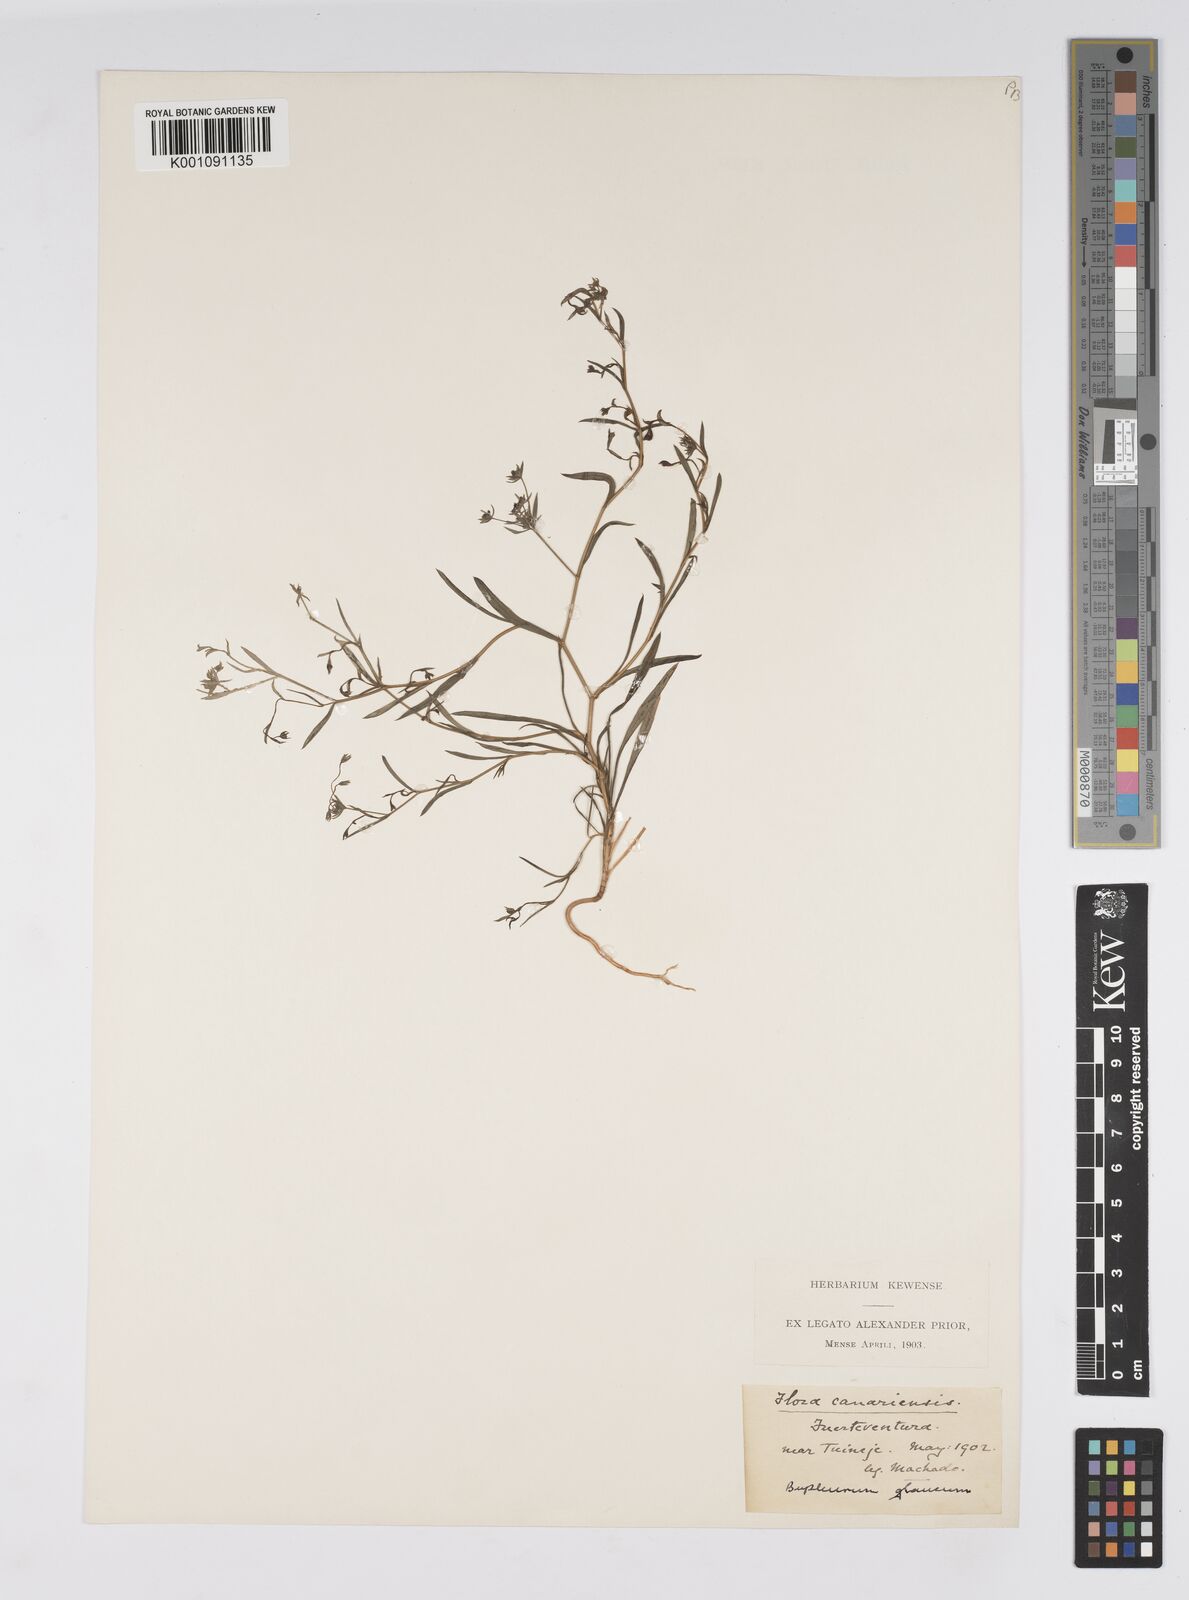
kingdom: Plantae
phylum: Tracheophyta
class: Magnoliopsida
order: Apiales
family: Apiaceae
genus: Bupleurum
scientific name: Bupleurum semicompositum
